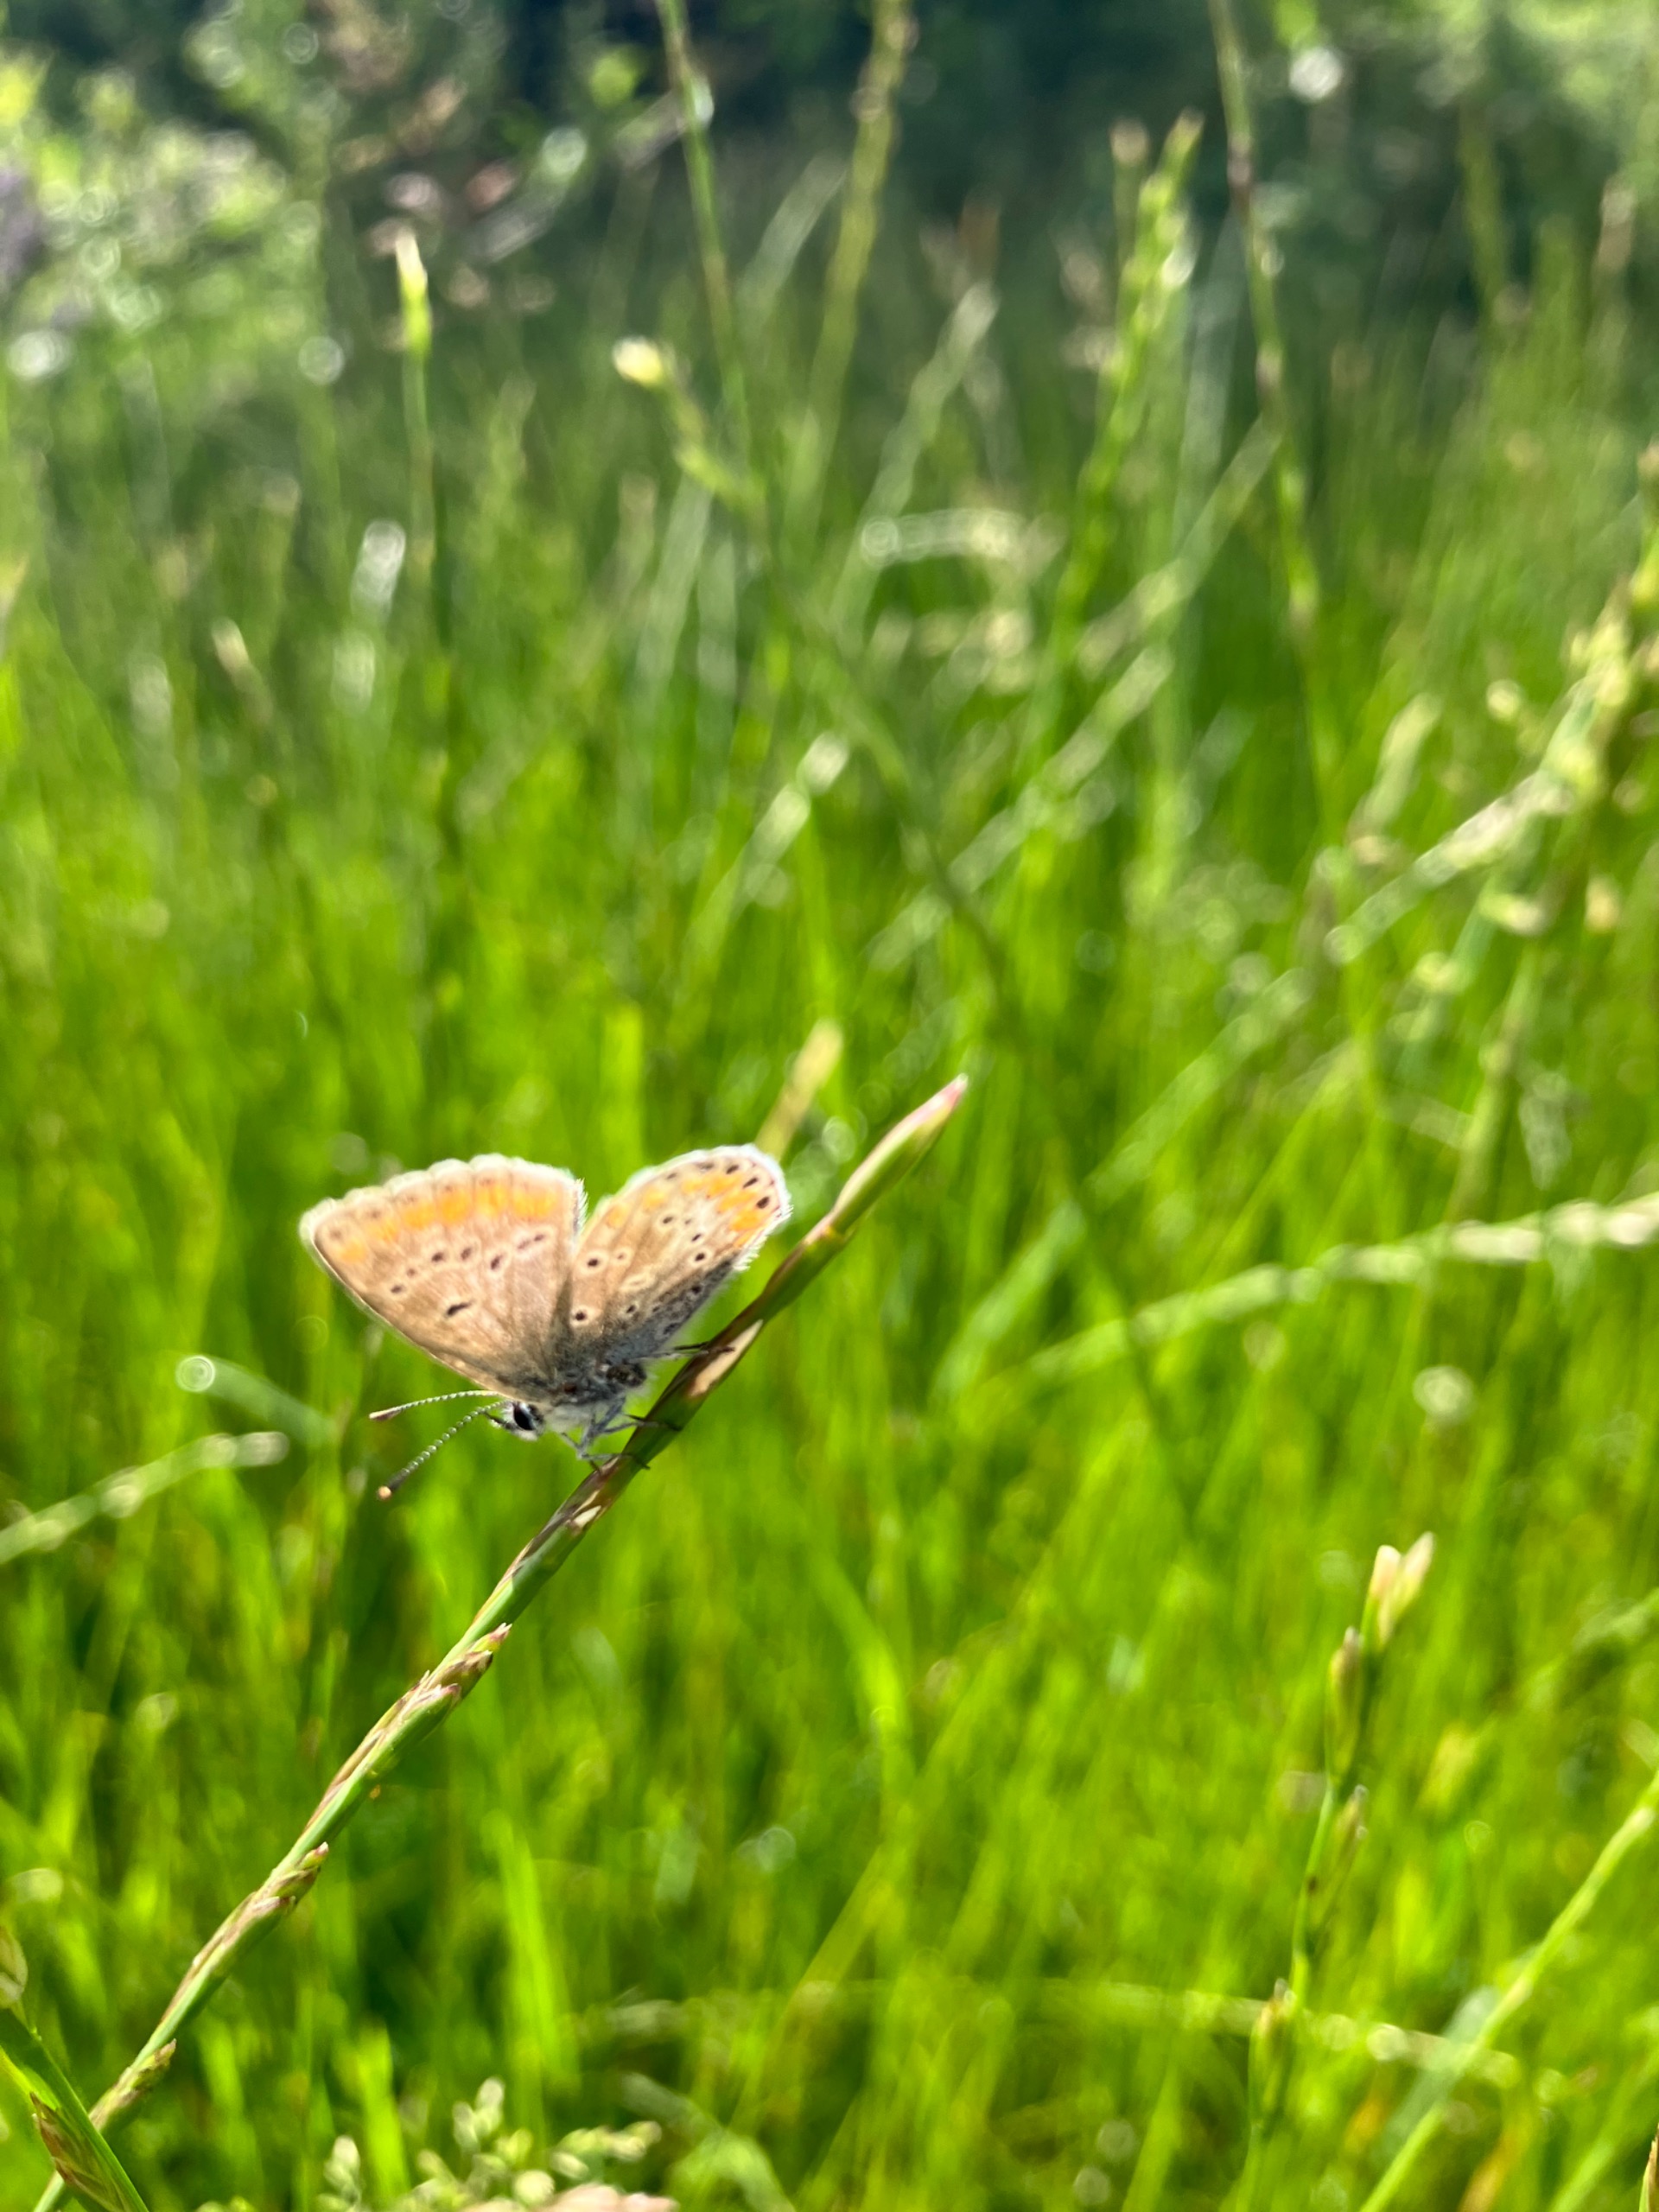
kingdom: Animalia
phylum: Arthropoda
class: Insecta
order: Lepidoptera
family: Lycaenidae
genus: Aricia
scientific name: Aricia agestis
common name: Rødplettet blåfugl
